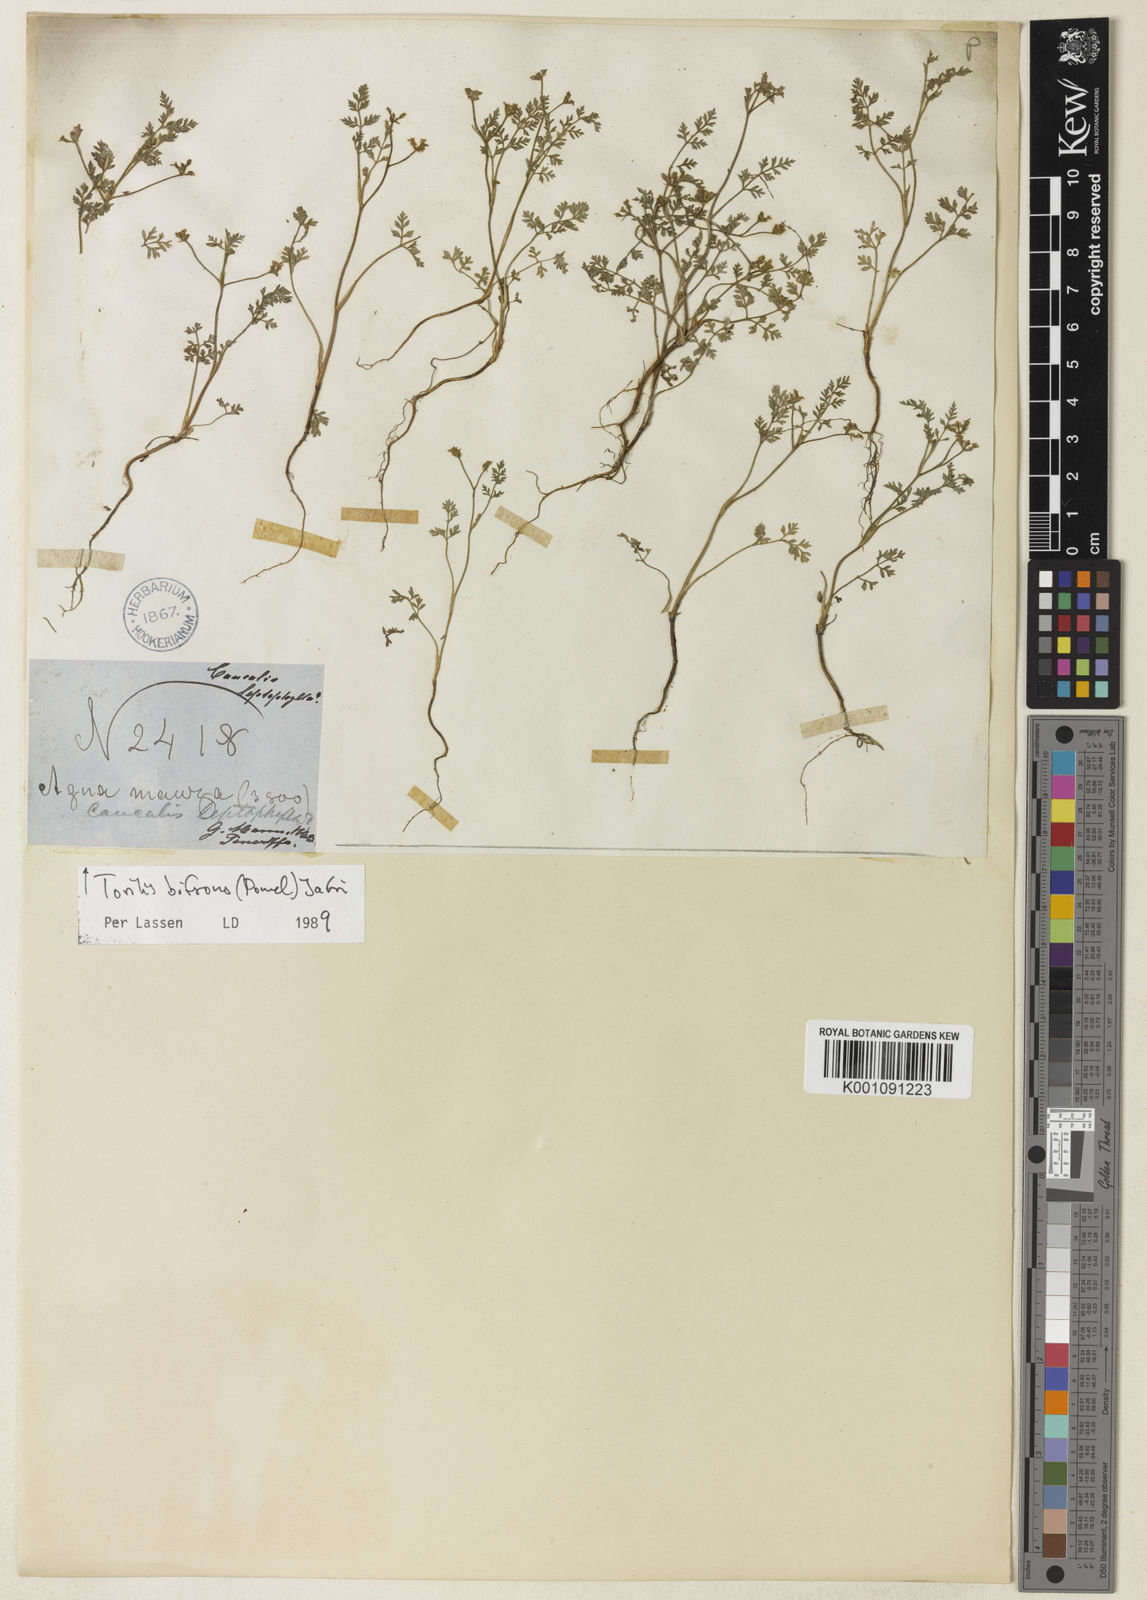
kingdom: Plantae
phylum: Tracheophyta
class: Magnoliopsida
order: Apiales
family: Apiaceae
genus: Torilis
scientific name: Torilis elongata
